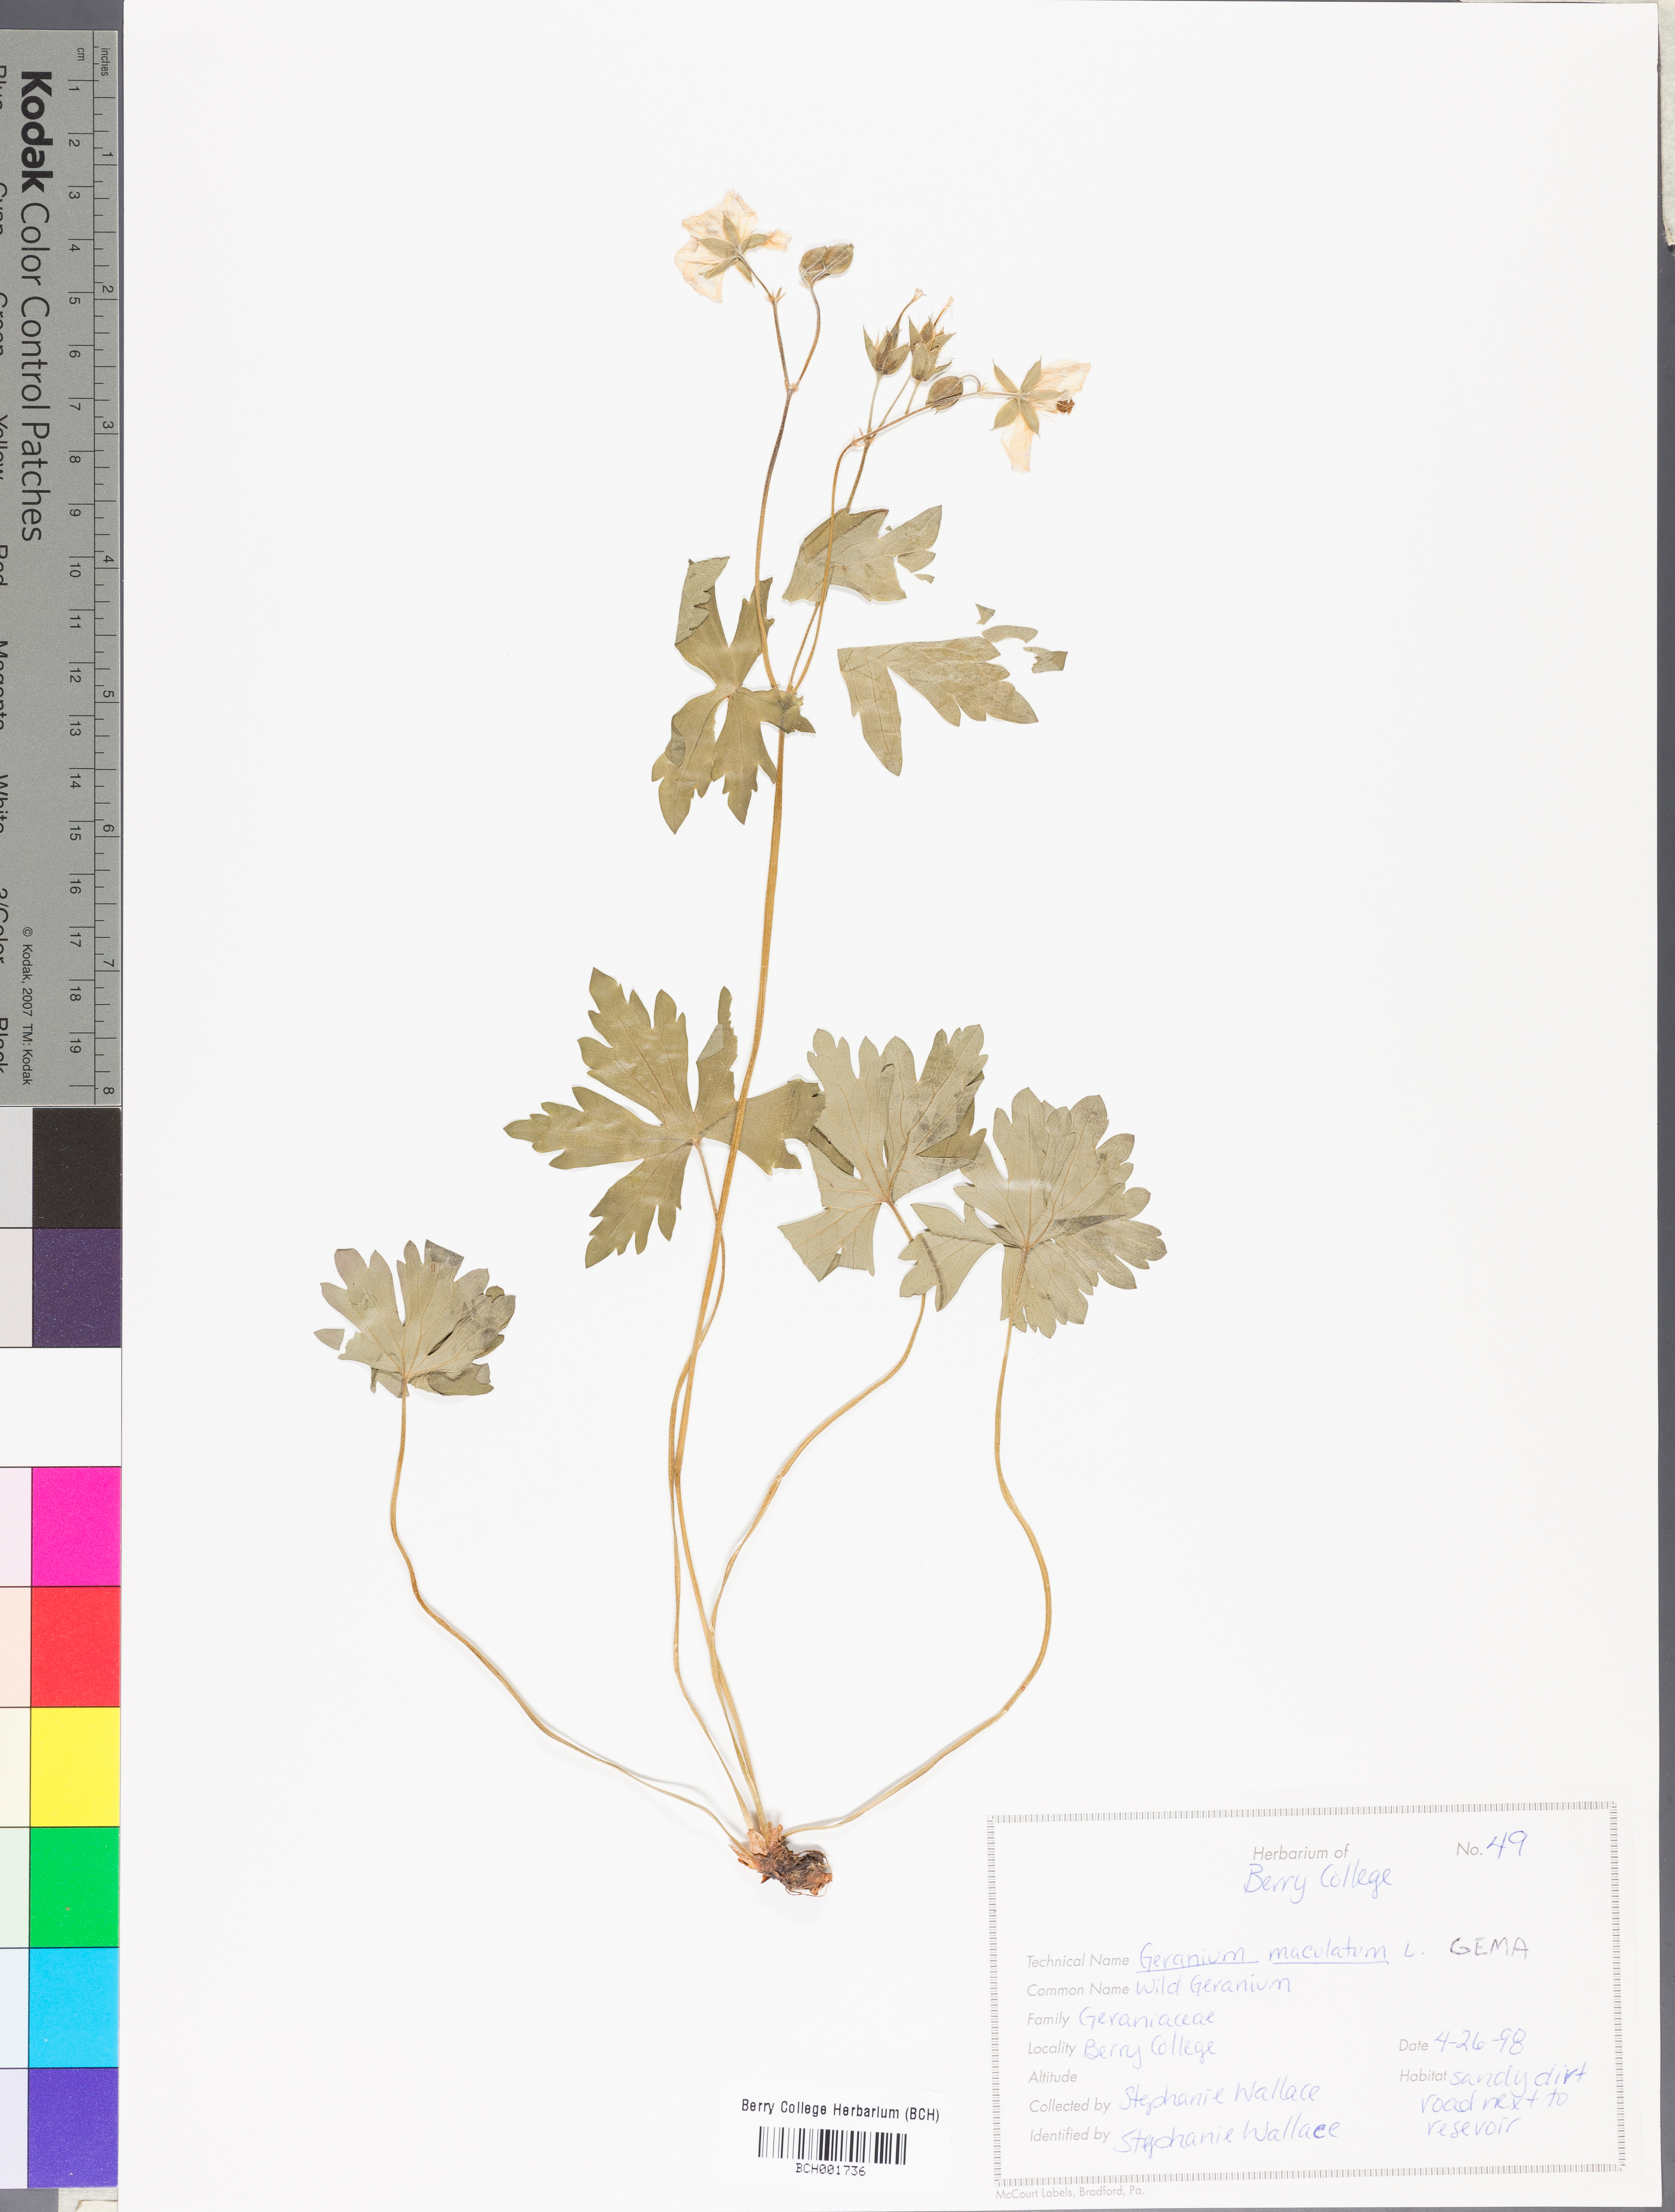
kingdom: Plantae
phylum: Tracheophyta
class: Magnoliopsida
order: Geraniales
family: Geraniaceae
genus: Geranium
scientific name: Geranium maculatum
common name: Spotted geranium
